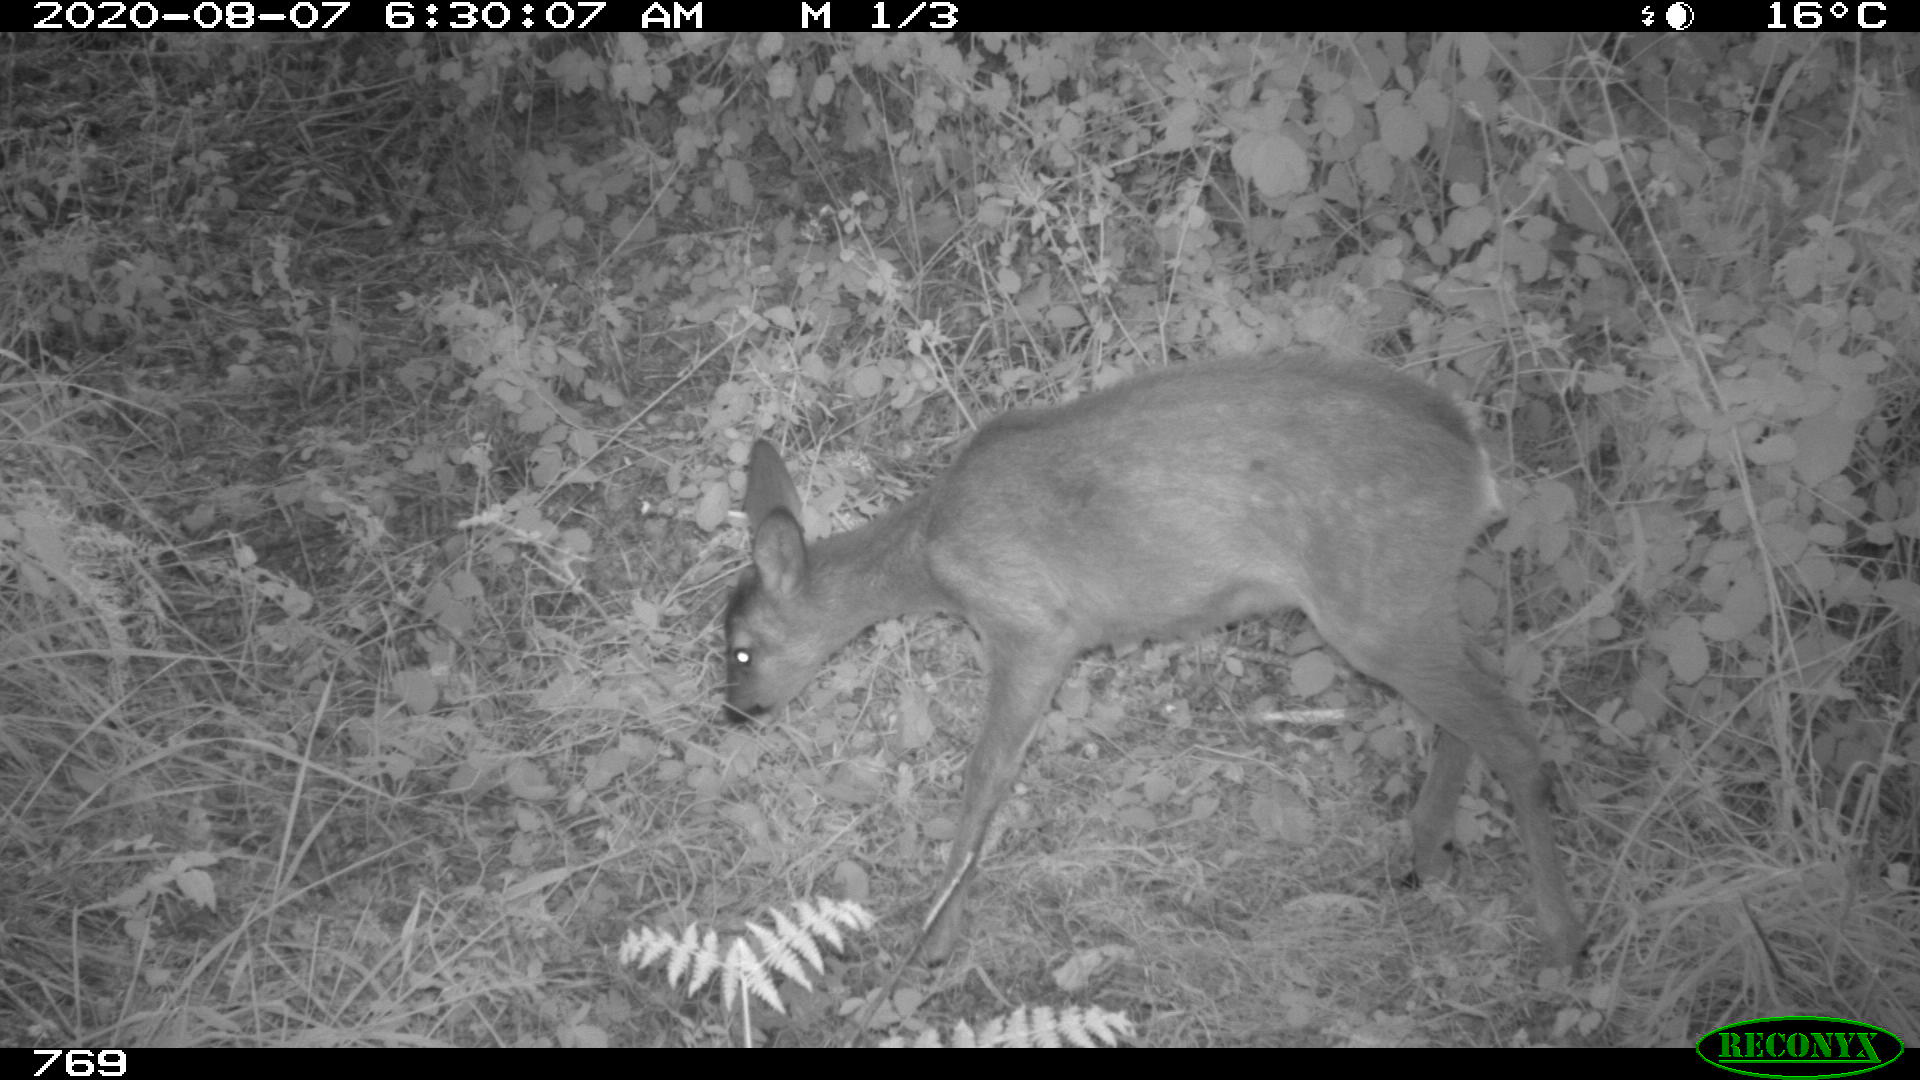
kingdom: Animalia
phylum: Chordata
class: Mammalia
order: Artiodactyla
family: Cervidae
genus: Capreolus
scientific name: Capreolus capreolus
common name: Western roe deer
